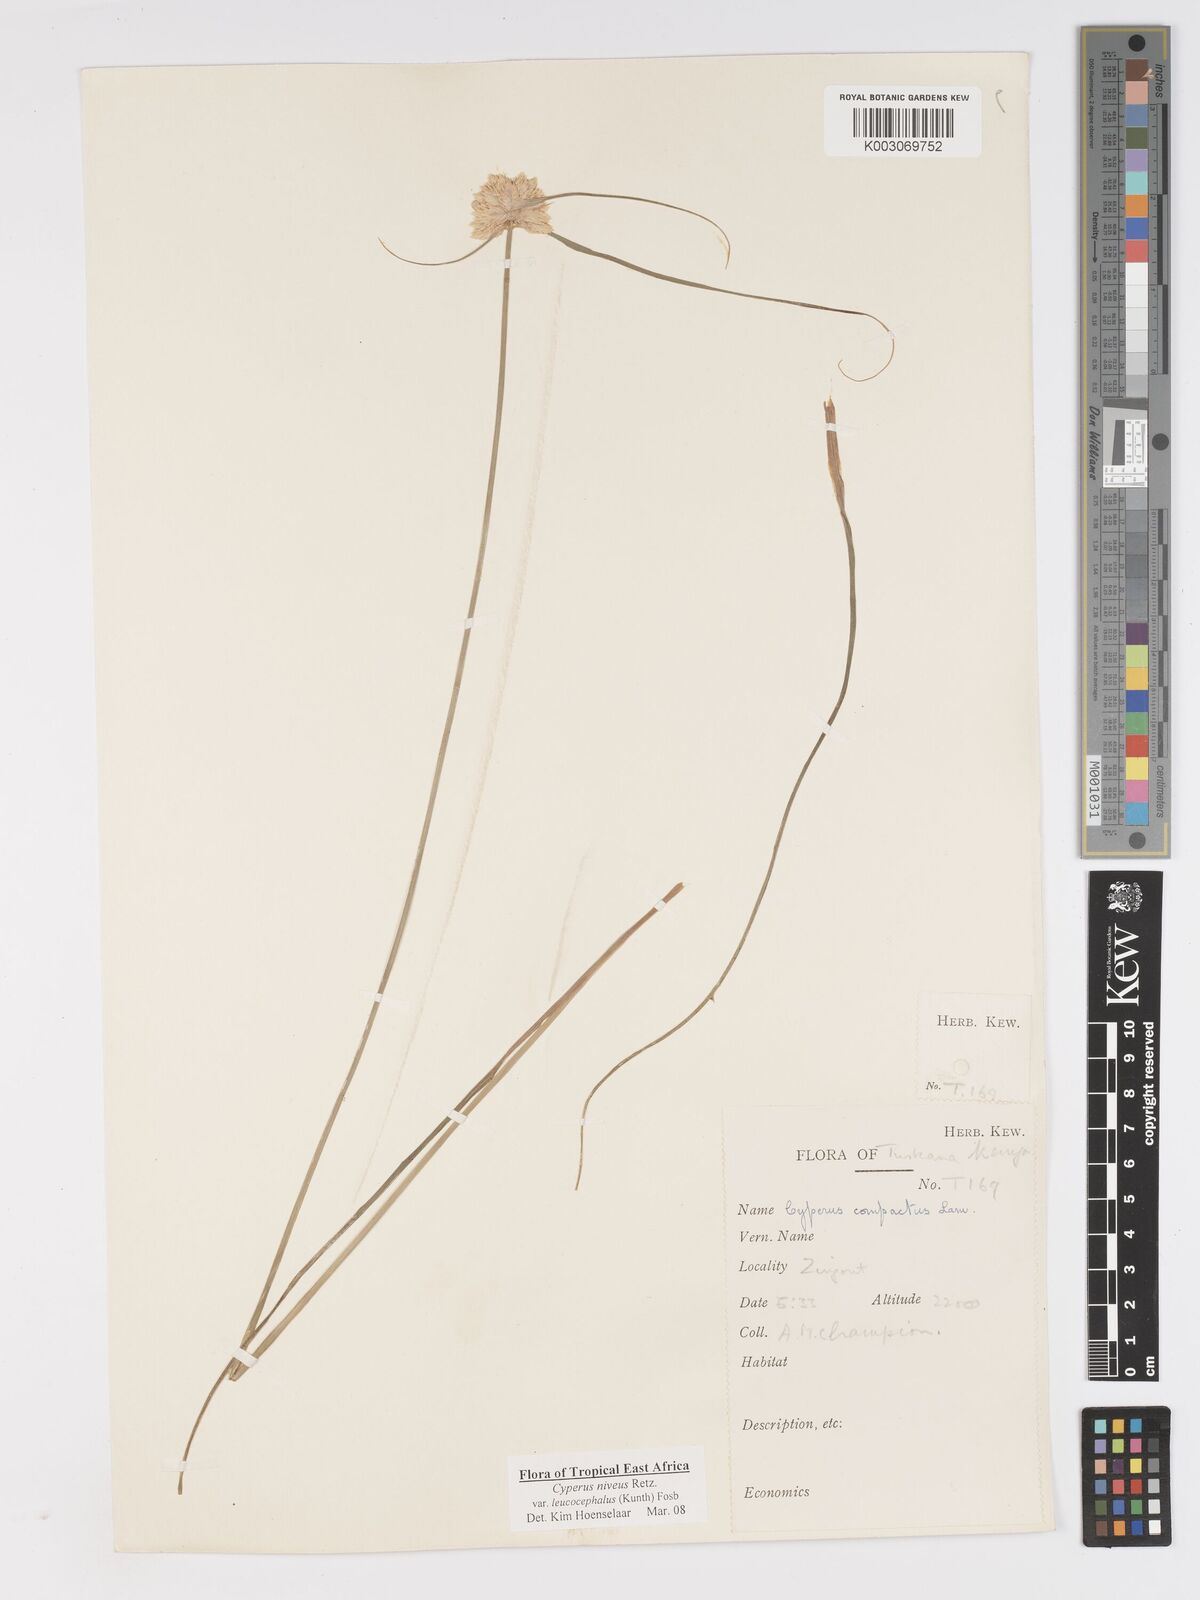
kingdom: Plantae
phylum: Tracheophyta
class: Liliopsida
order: Poales
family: Cyperaceae
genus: Cyperus
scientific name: Cyperus niveus
